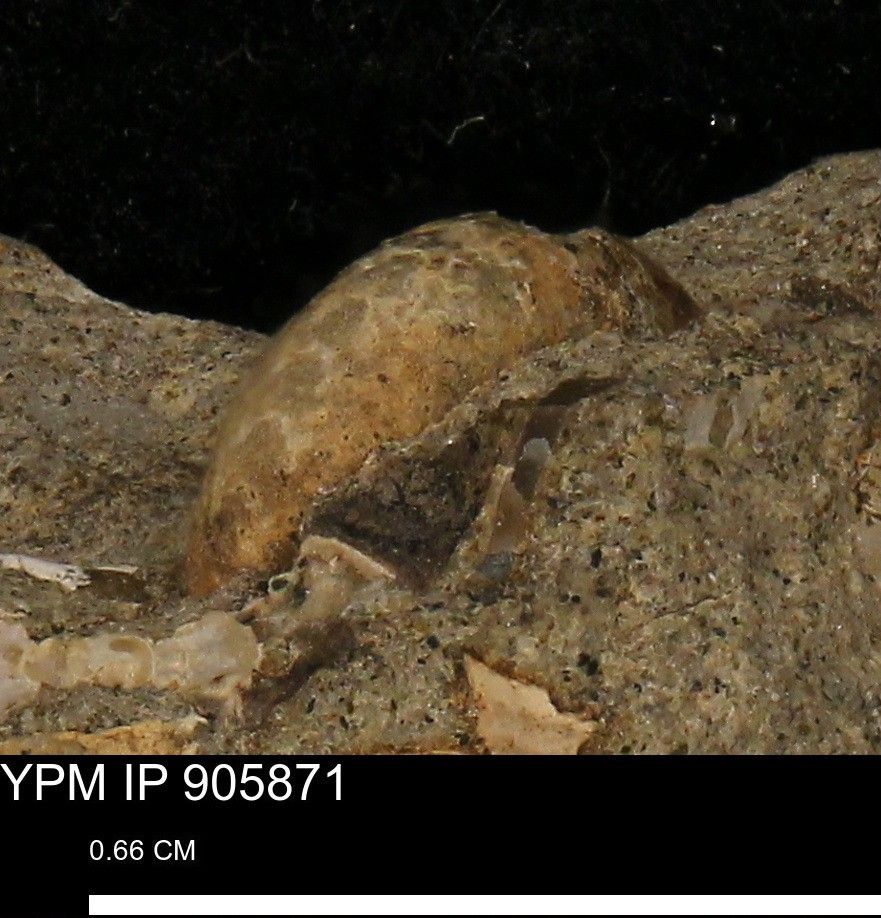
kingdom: Animalia
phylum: Arthropoda
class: Malacostraca
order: Decapoda
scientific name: Decapoda
